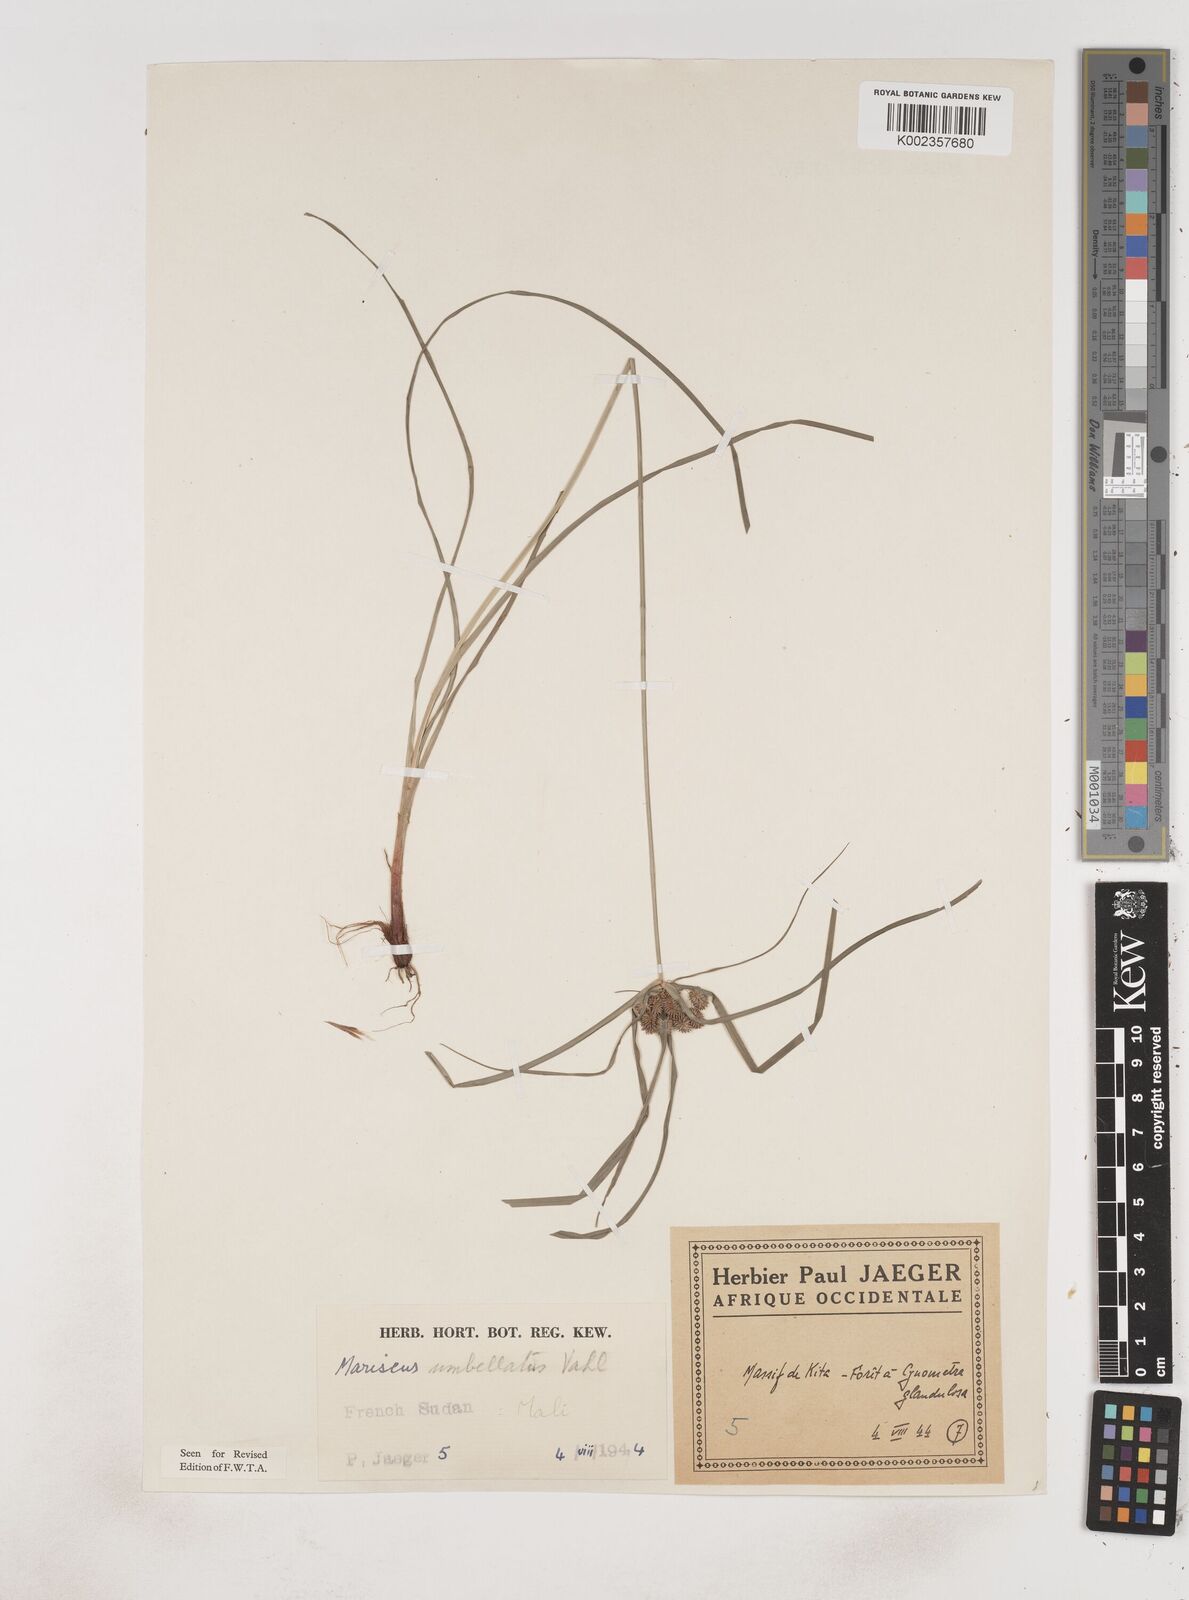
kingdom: Plantae
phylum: Tracheophyta
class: Liliopsida
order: Poales
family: Cyperaceae
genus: Cyperus
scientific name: Cyperus sublimis
